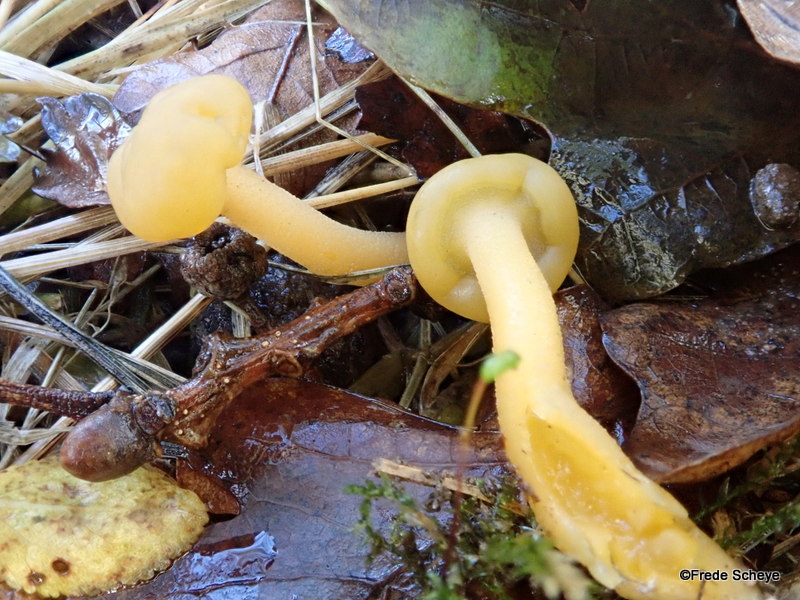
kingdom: Fungi
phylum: Ascomycota
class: Leotiomycetes
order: Leotiales
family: Leotiaceae
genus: Leotia
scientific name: Leotia lubrica
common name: ravsvamp
